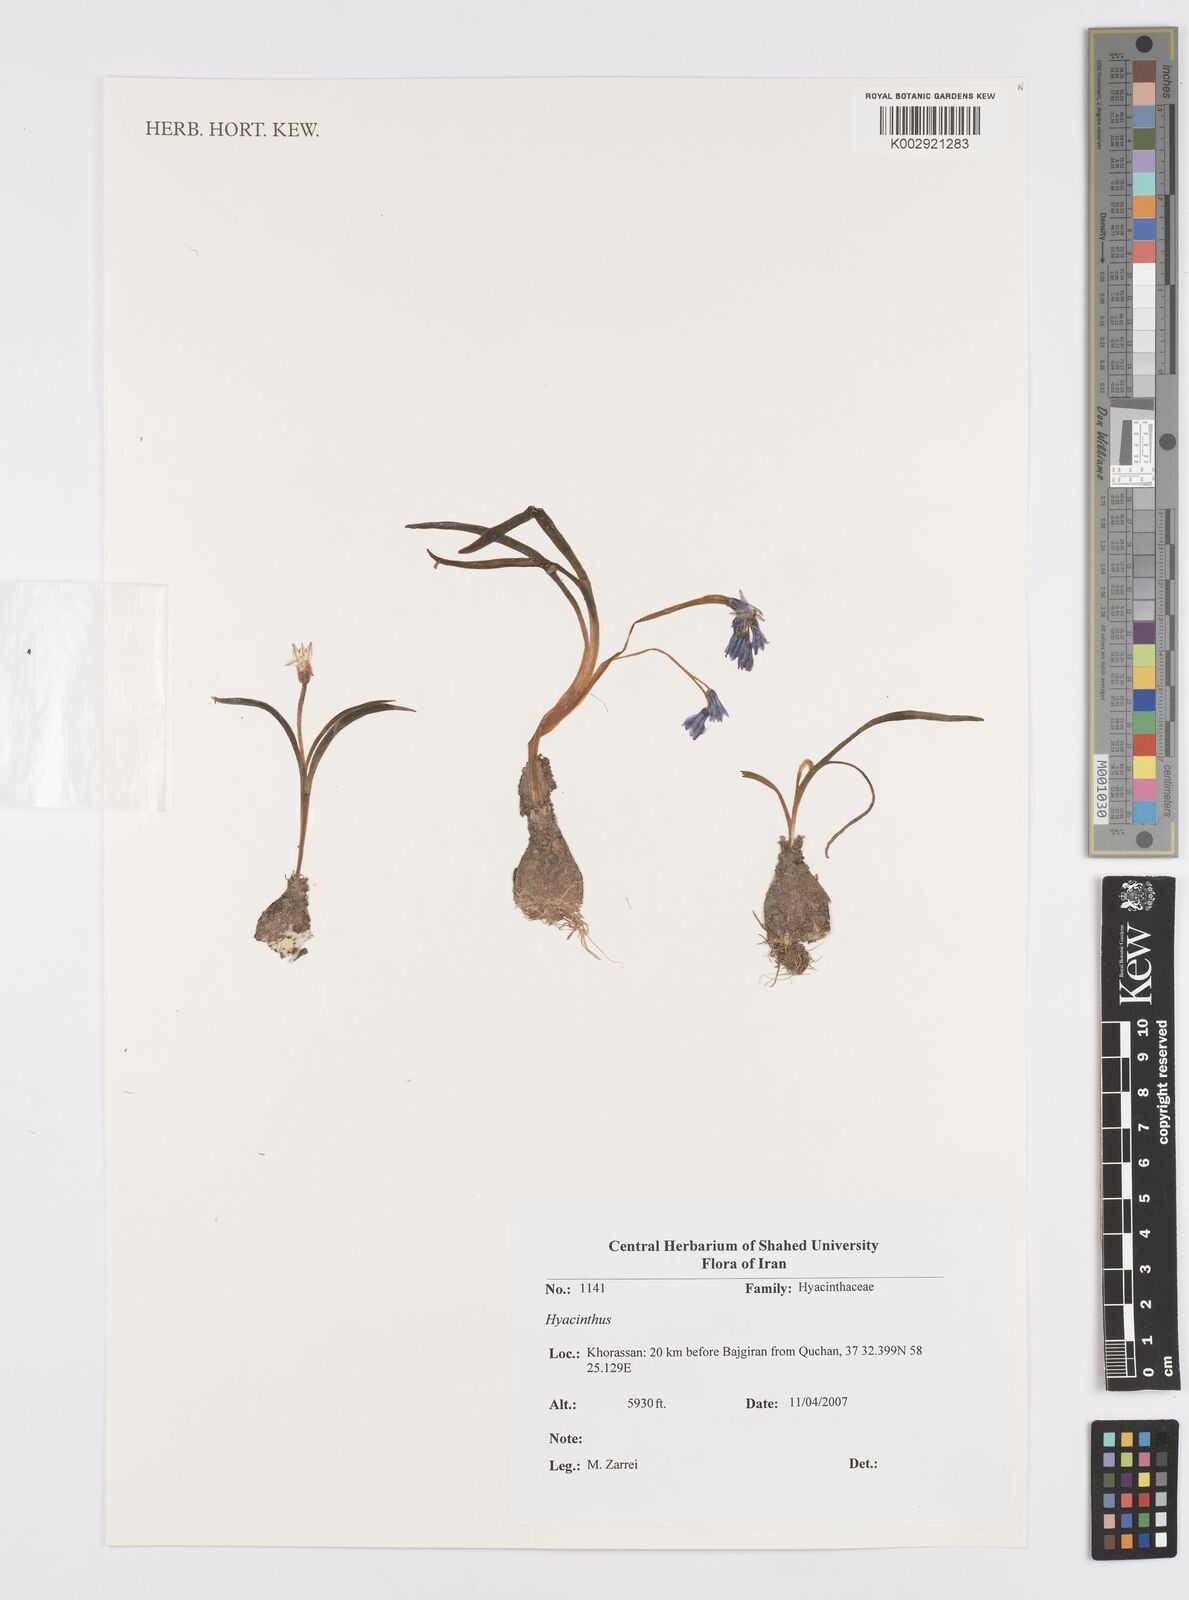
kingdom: Plantae
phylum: Tracheophyta
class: Liliopsida
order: Asparagales
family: Asparagaceae
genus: Hyacinthus
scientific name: Hyacinthus
